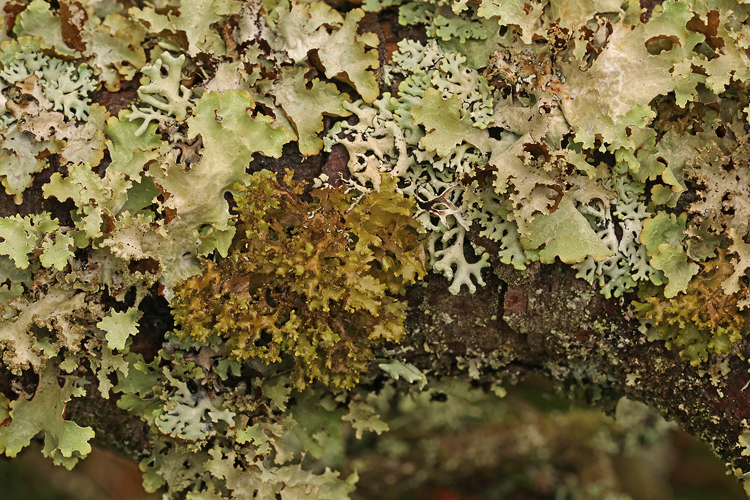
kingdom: Fungi
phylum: Ascomycota
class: Lecanoromycetes
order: Lecanorales
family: Parmeliaceae
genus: Nephromopsis
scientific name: Nephromopsis chlorophylla
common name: olivenbrun kruslav
